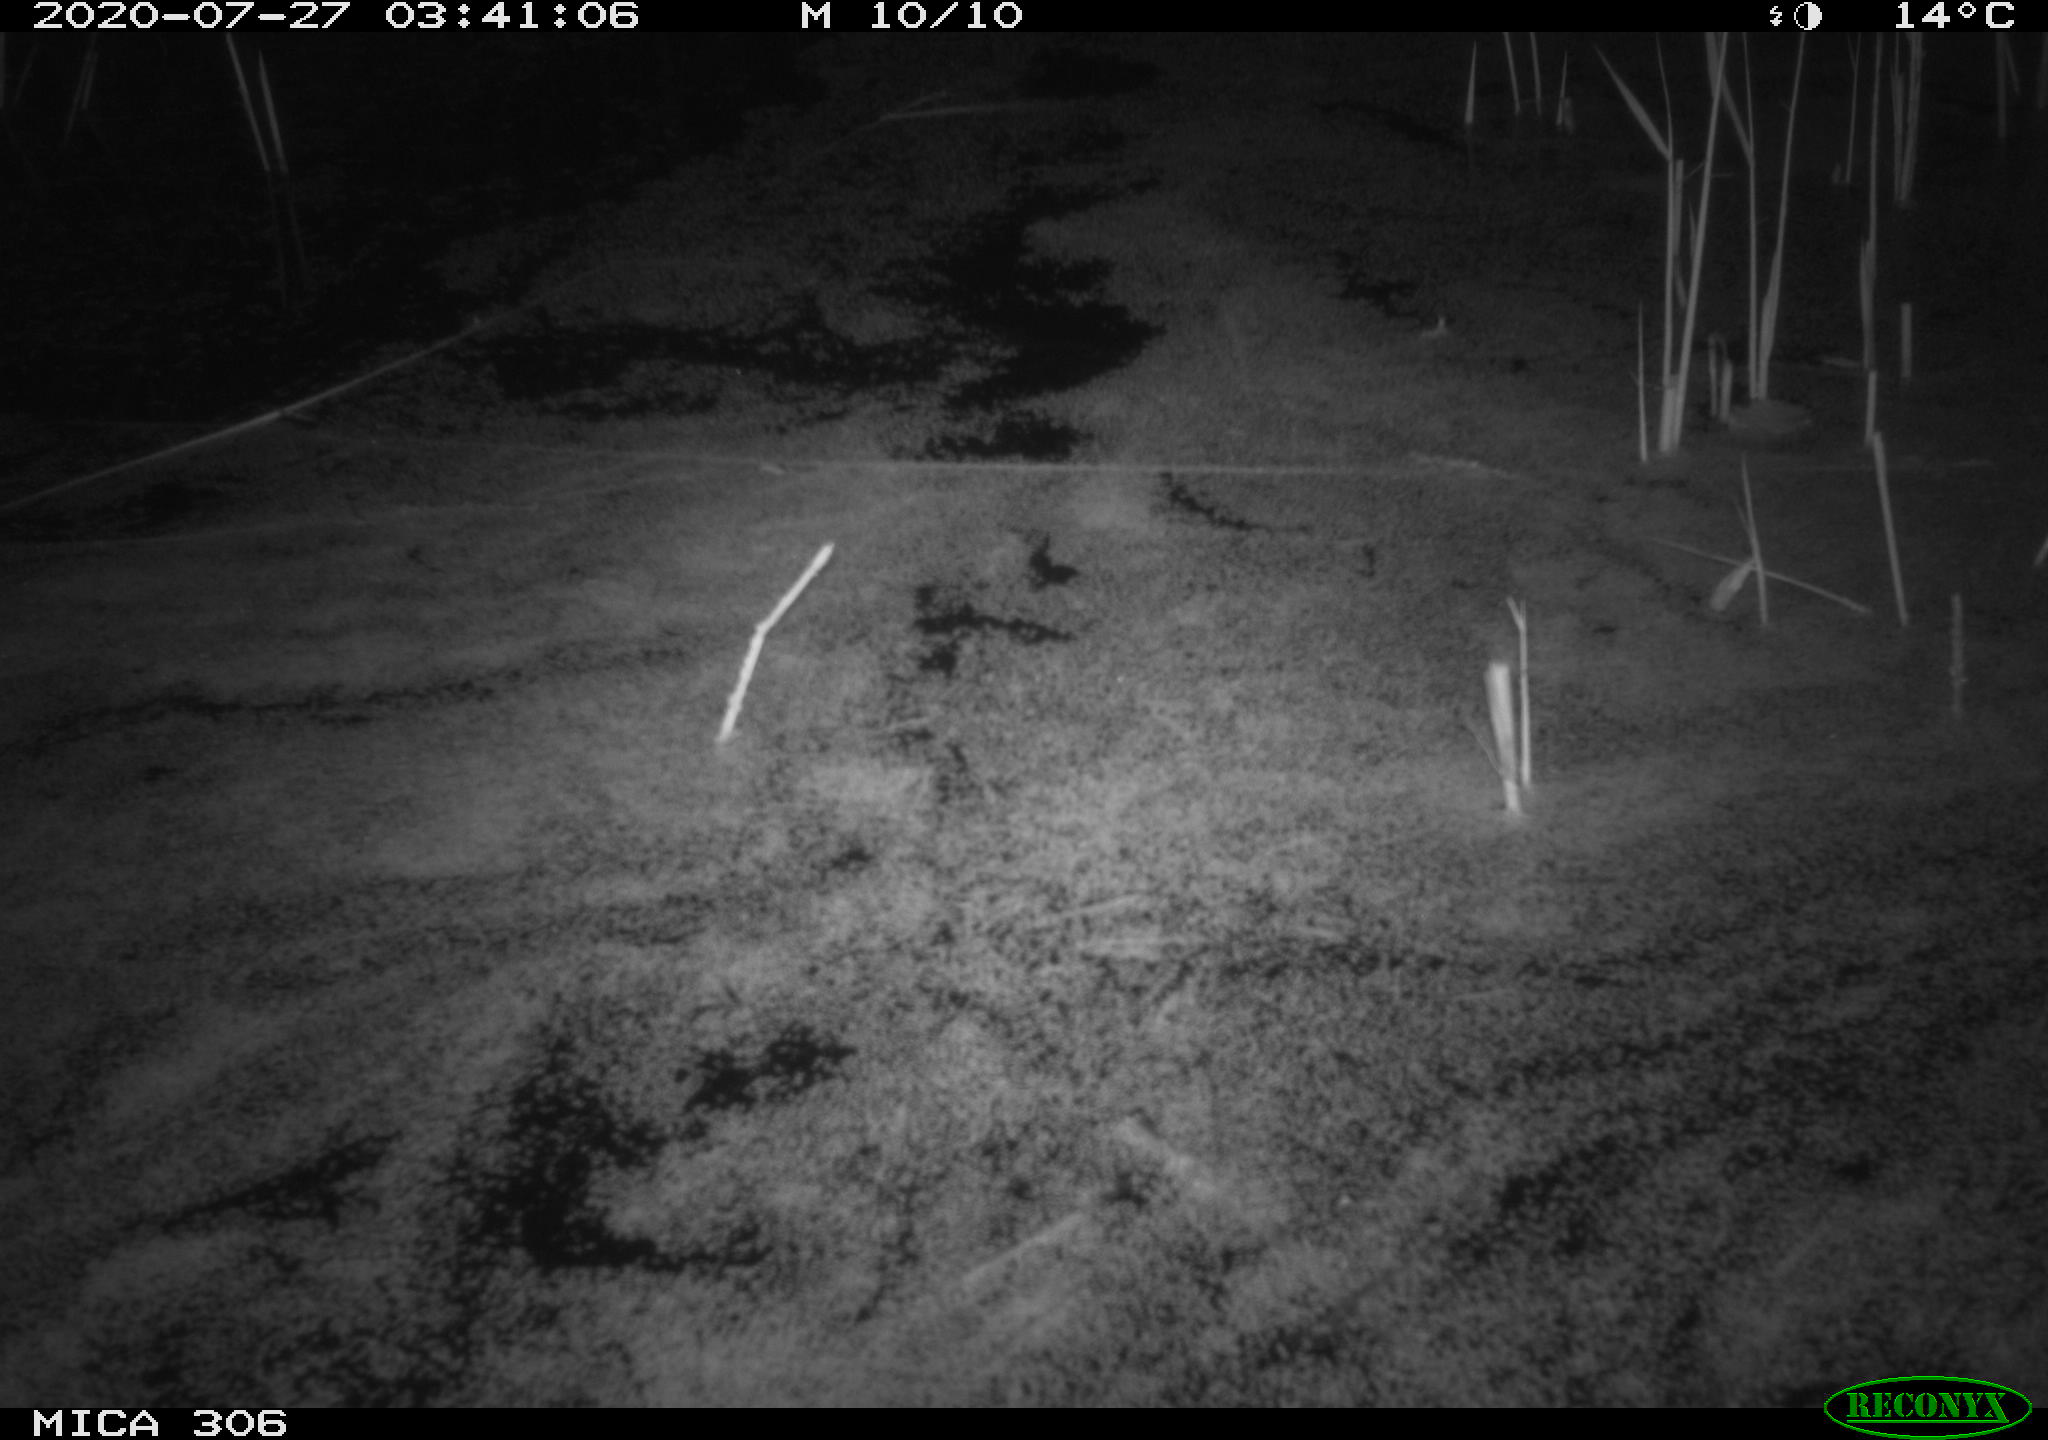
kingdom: Animalia
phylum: Chordata
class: Mammalia
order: Rodentia
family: Cricetidae
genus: Ondatra
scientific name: Ondatra zibethicus
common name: Muskrat
